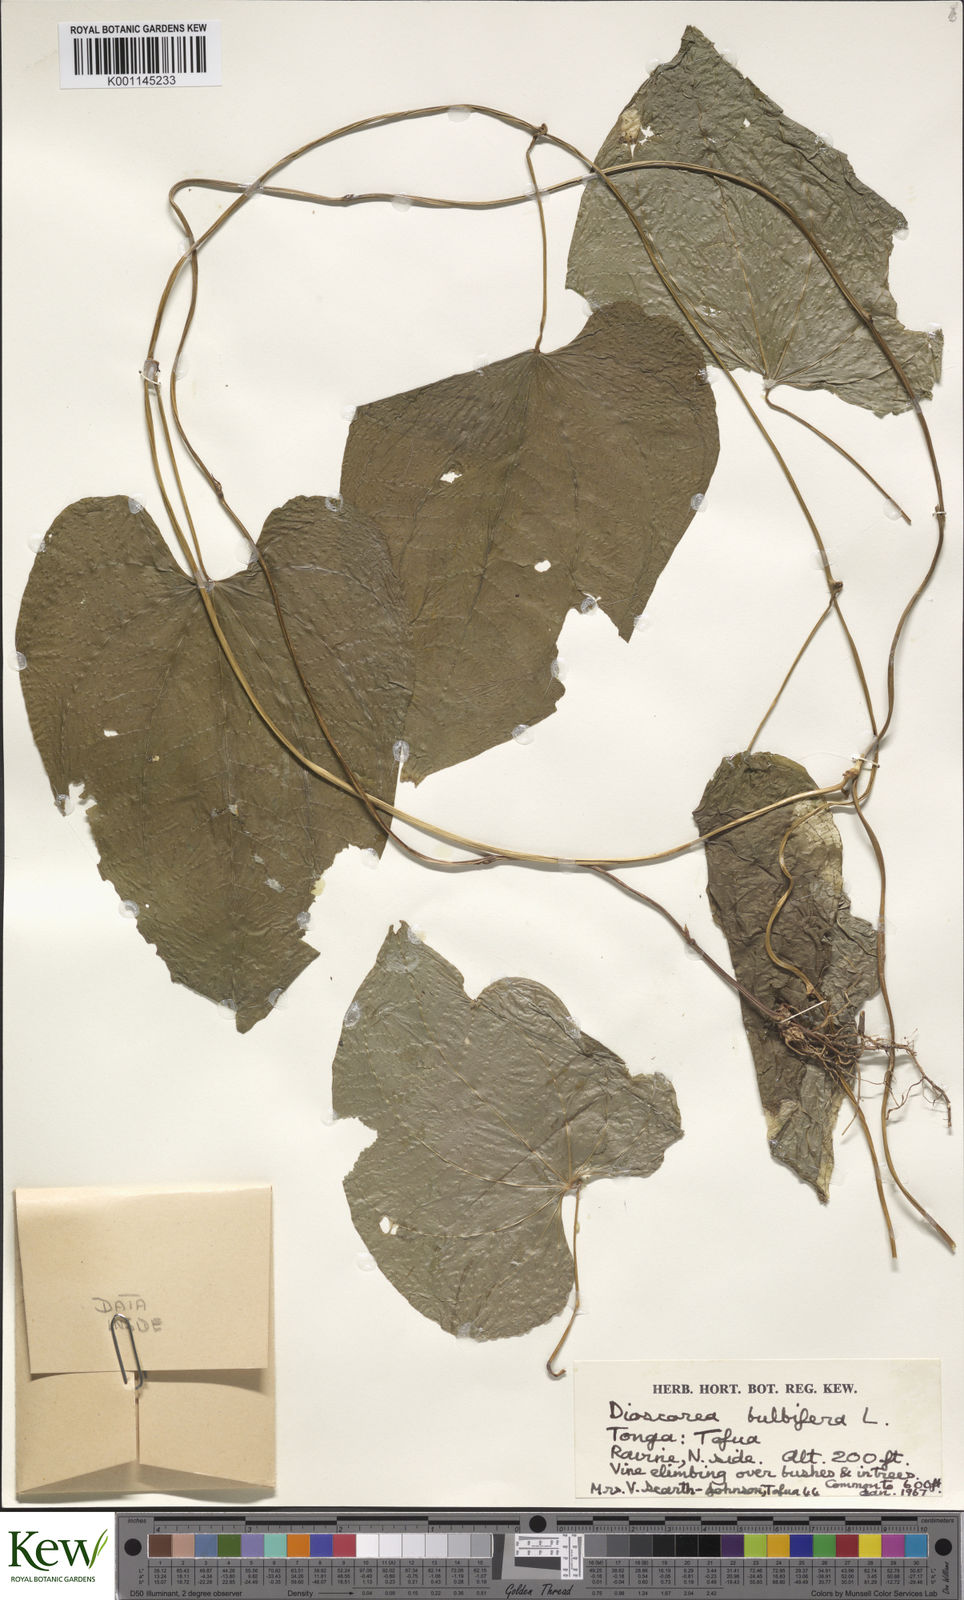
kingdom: Plantae
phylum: Tracheophyta
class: Liliopsida
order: Dioscoreales
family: Dioscoreaceae
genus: Dioscorea
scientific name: Dioscorea bulbifera
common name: Air yam
